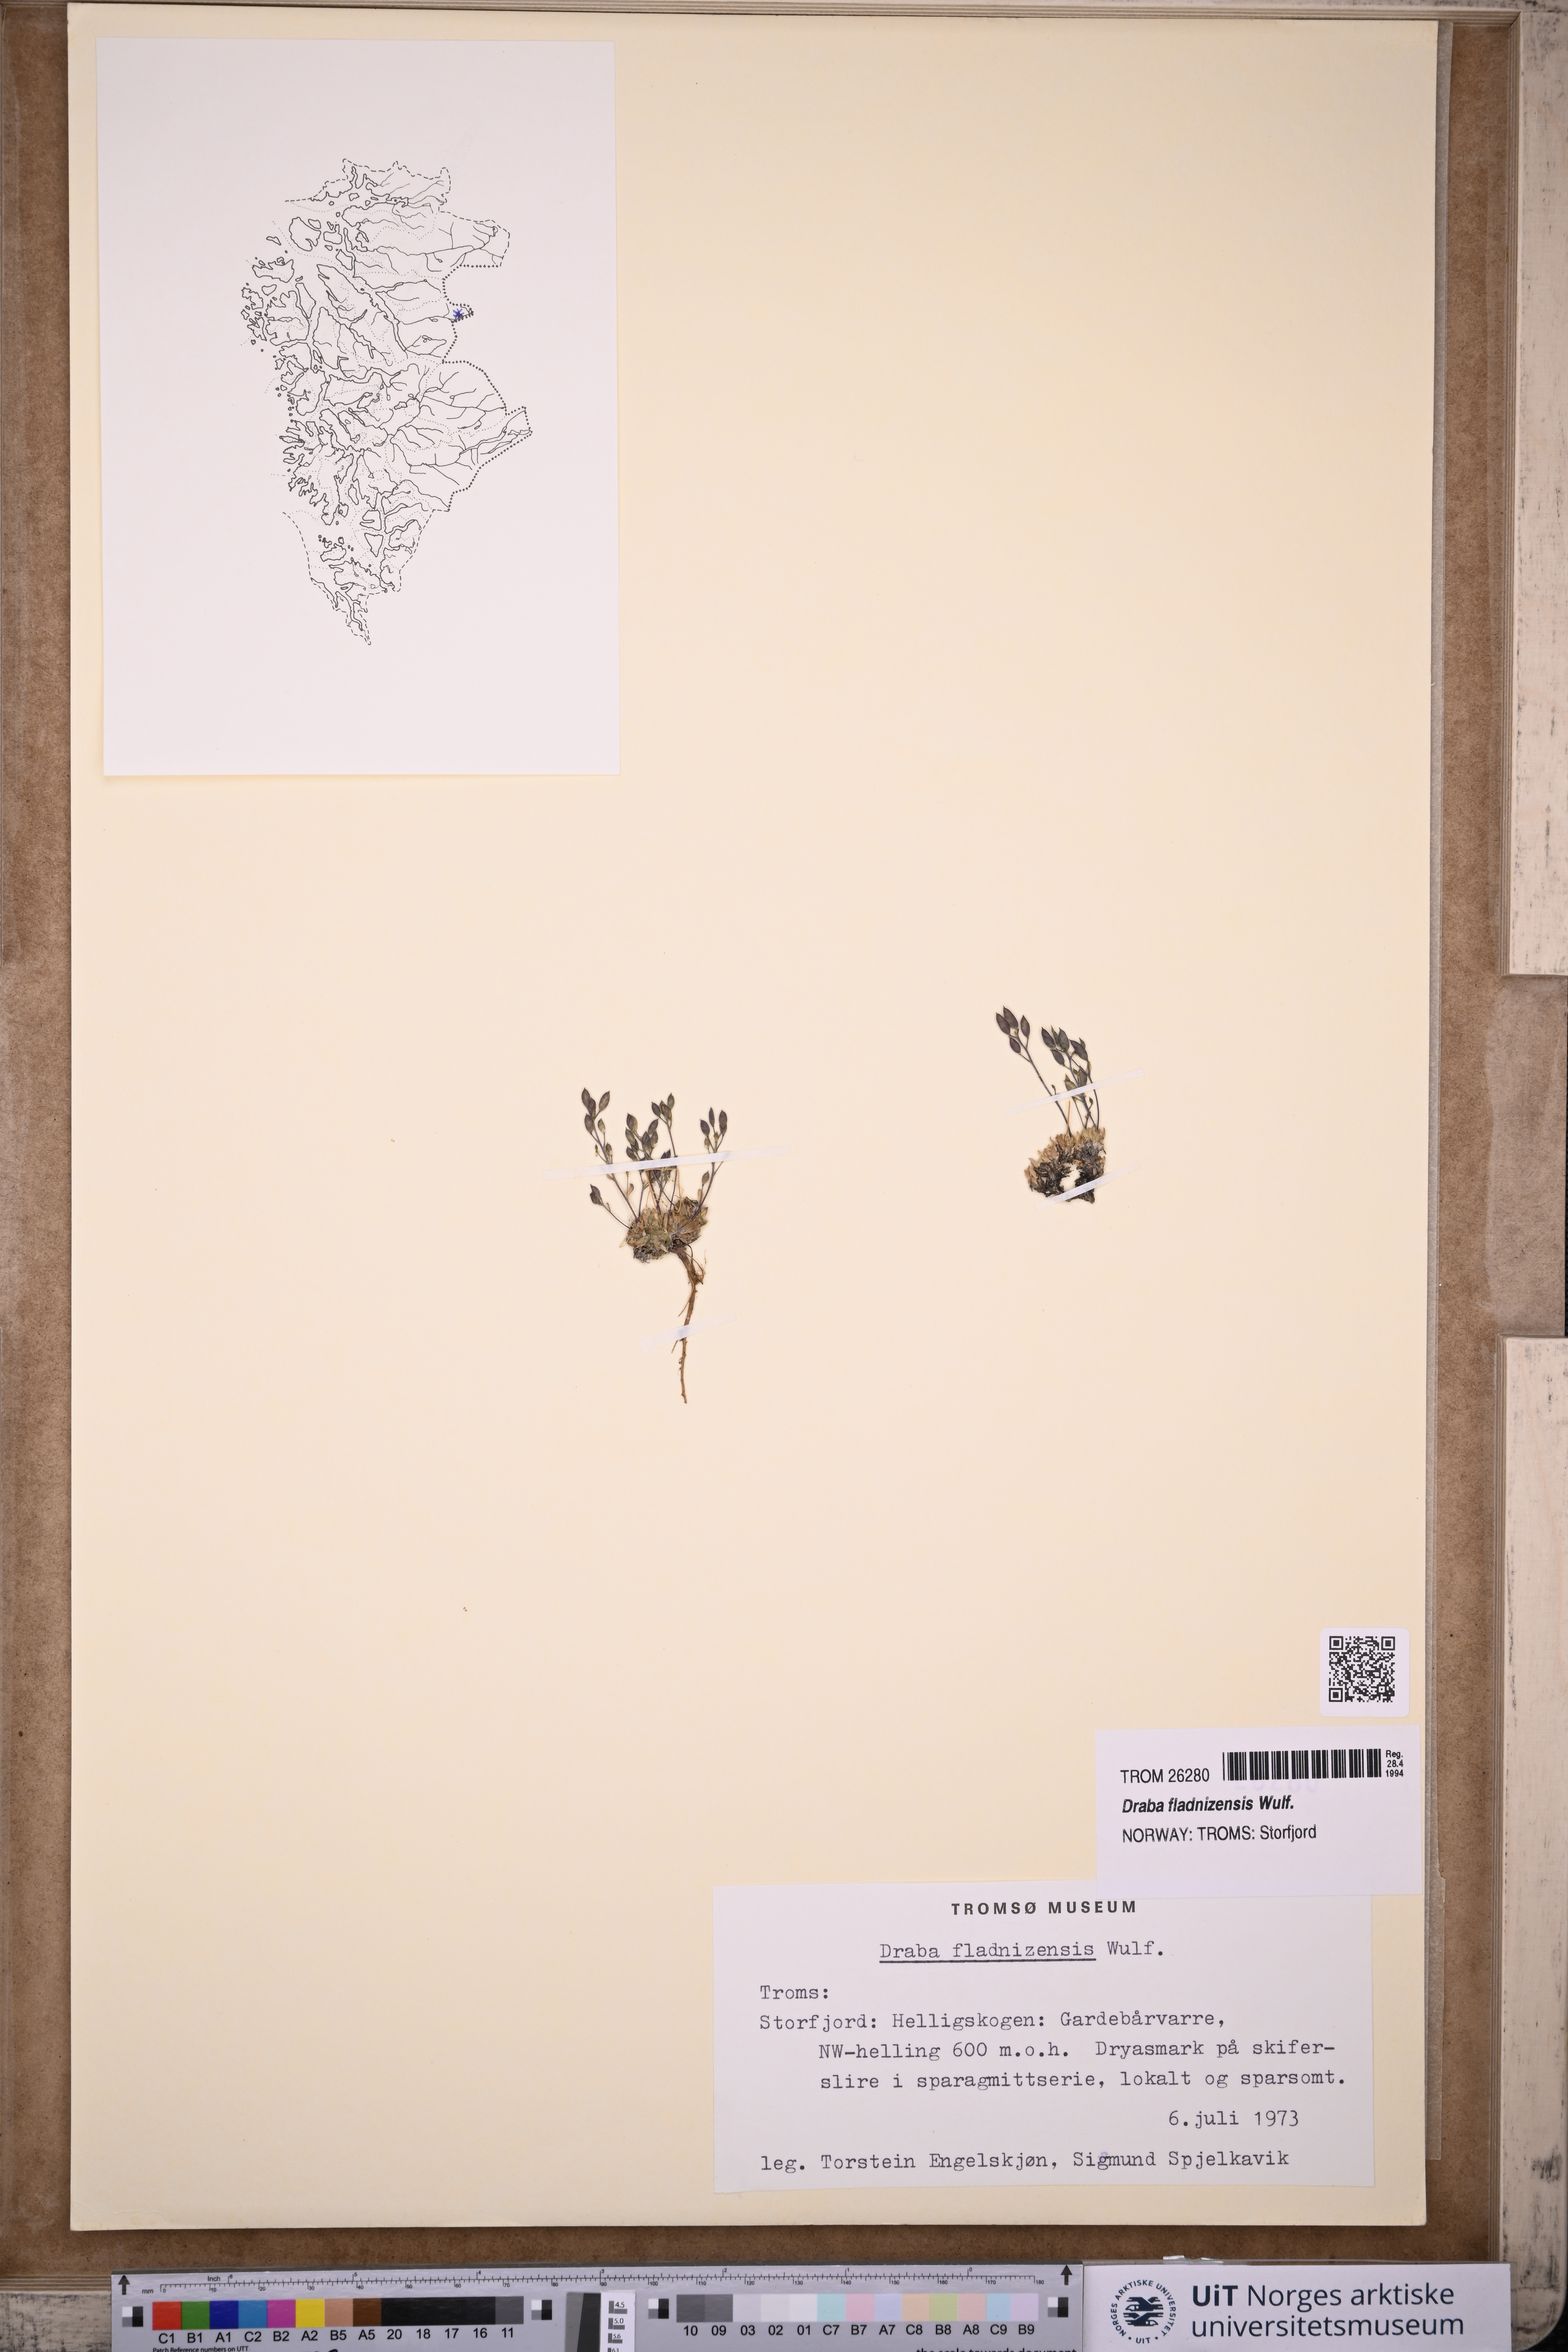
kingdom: Plantae
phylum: Tracheophyta
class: Magnoliopsida
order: Brassicales
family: Brassicaceae
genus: Draba
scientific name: Draba fladnizensis
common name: Austrian draba
